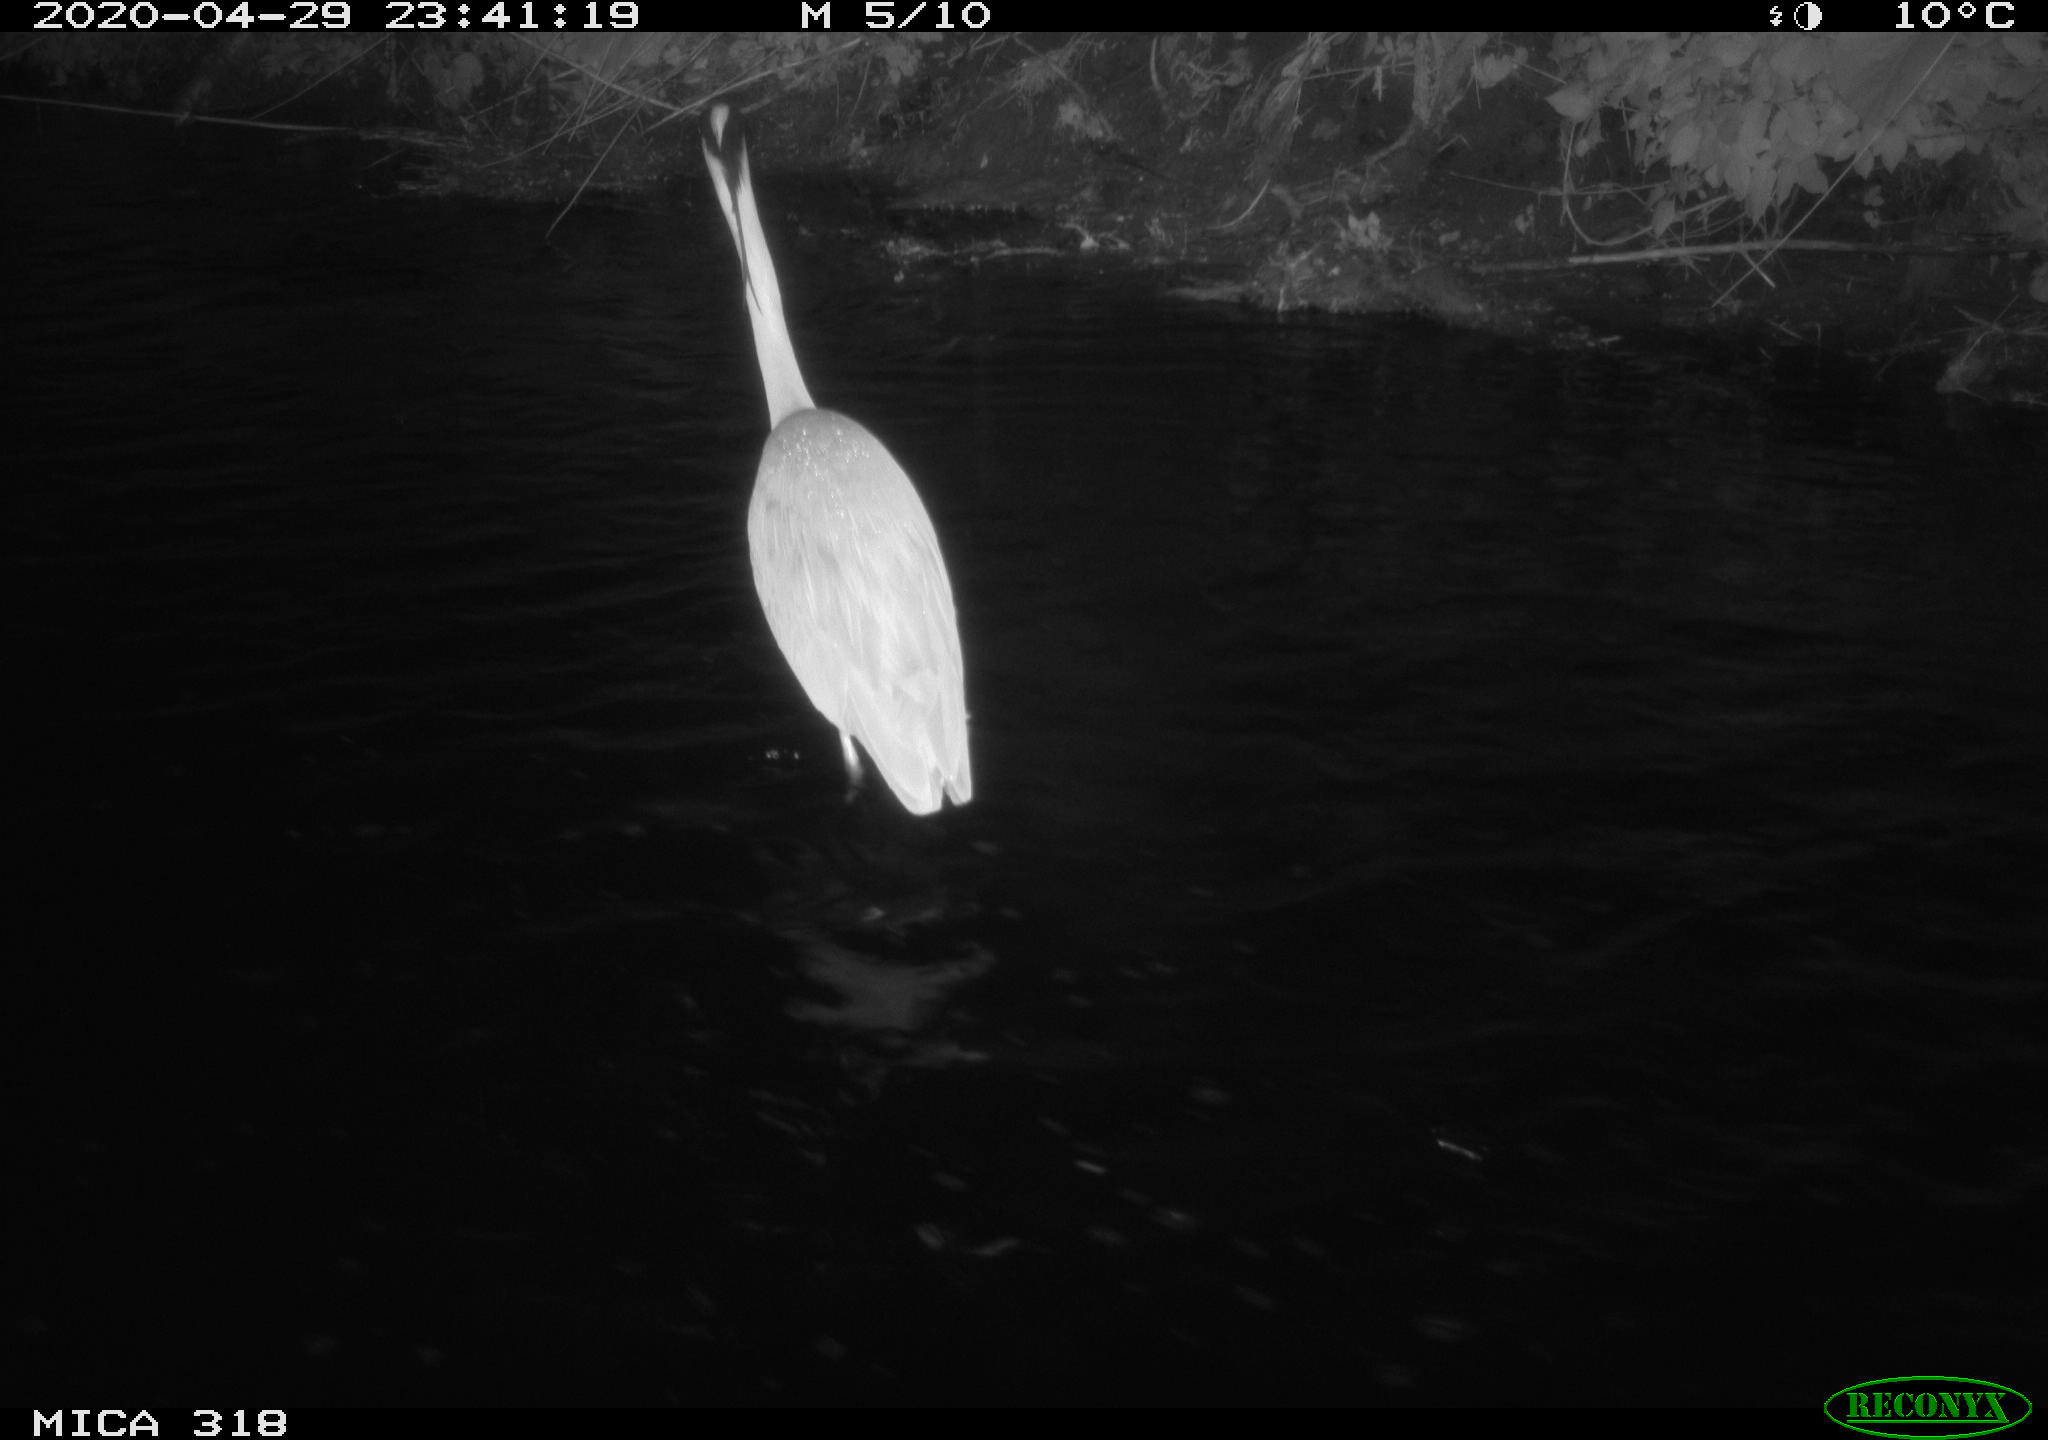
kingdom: Animalia
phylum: Chordata
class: Aves
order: Pelecaniformes
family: Ardeidae
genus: Ardea
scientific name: Ardea cinerea
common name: Grey heron
